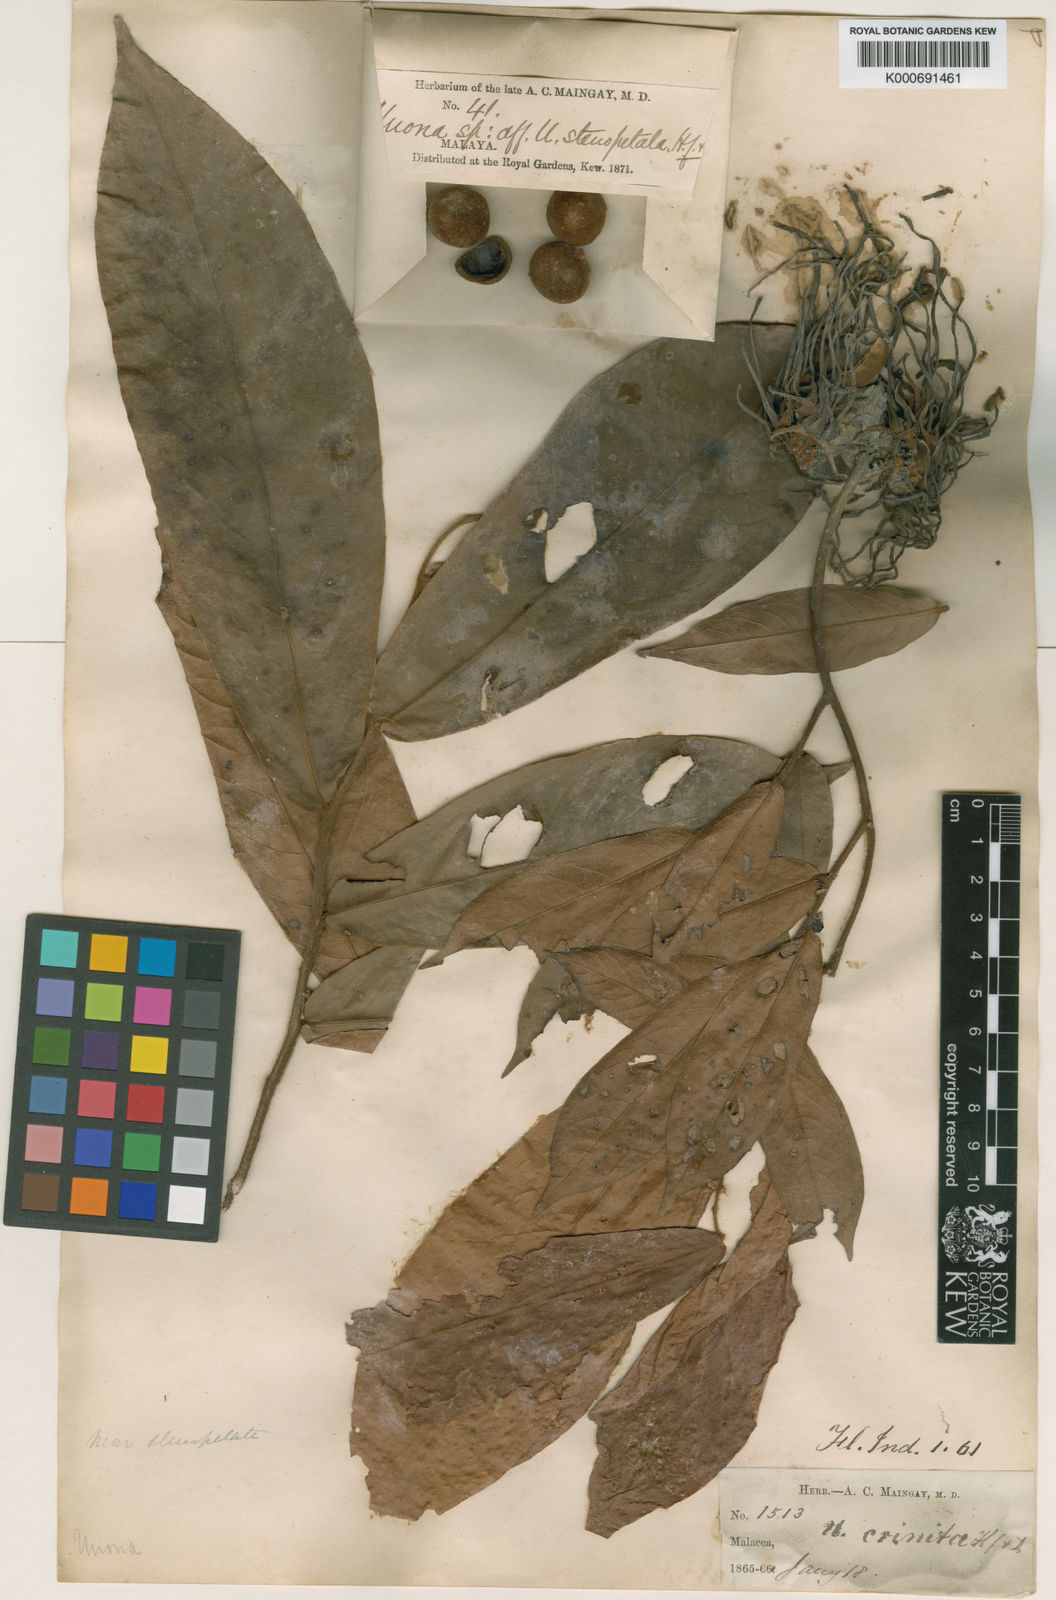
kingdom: Plantae
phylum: Tracheophyta
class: Magnoliopsida
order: Magnoliales
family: Annonaceae
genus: Polyalthia
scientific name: Polyalthia stenopetala
